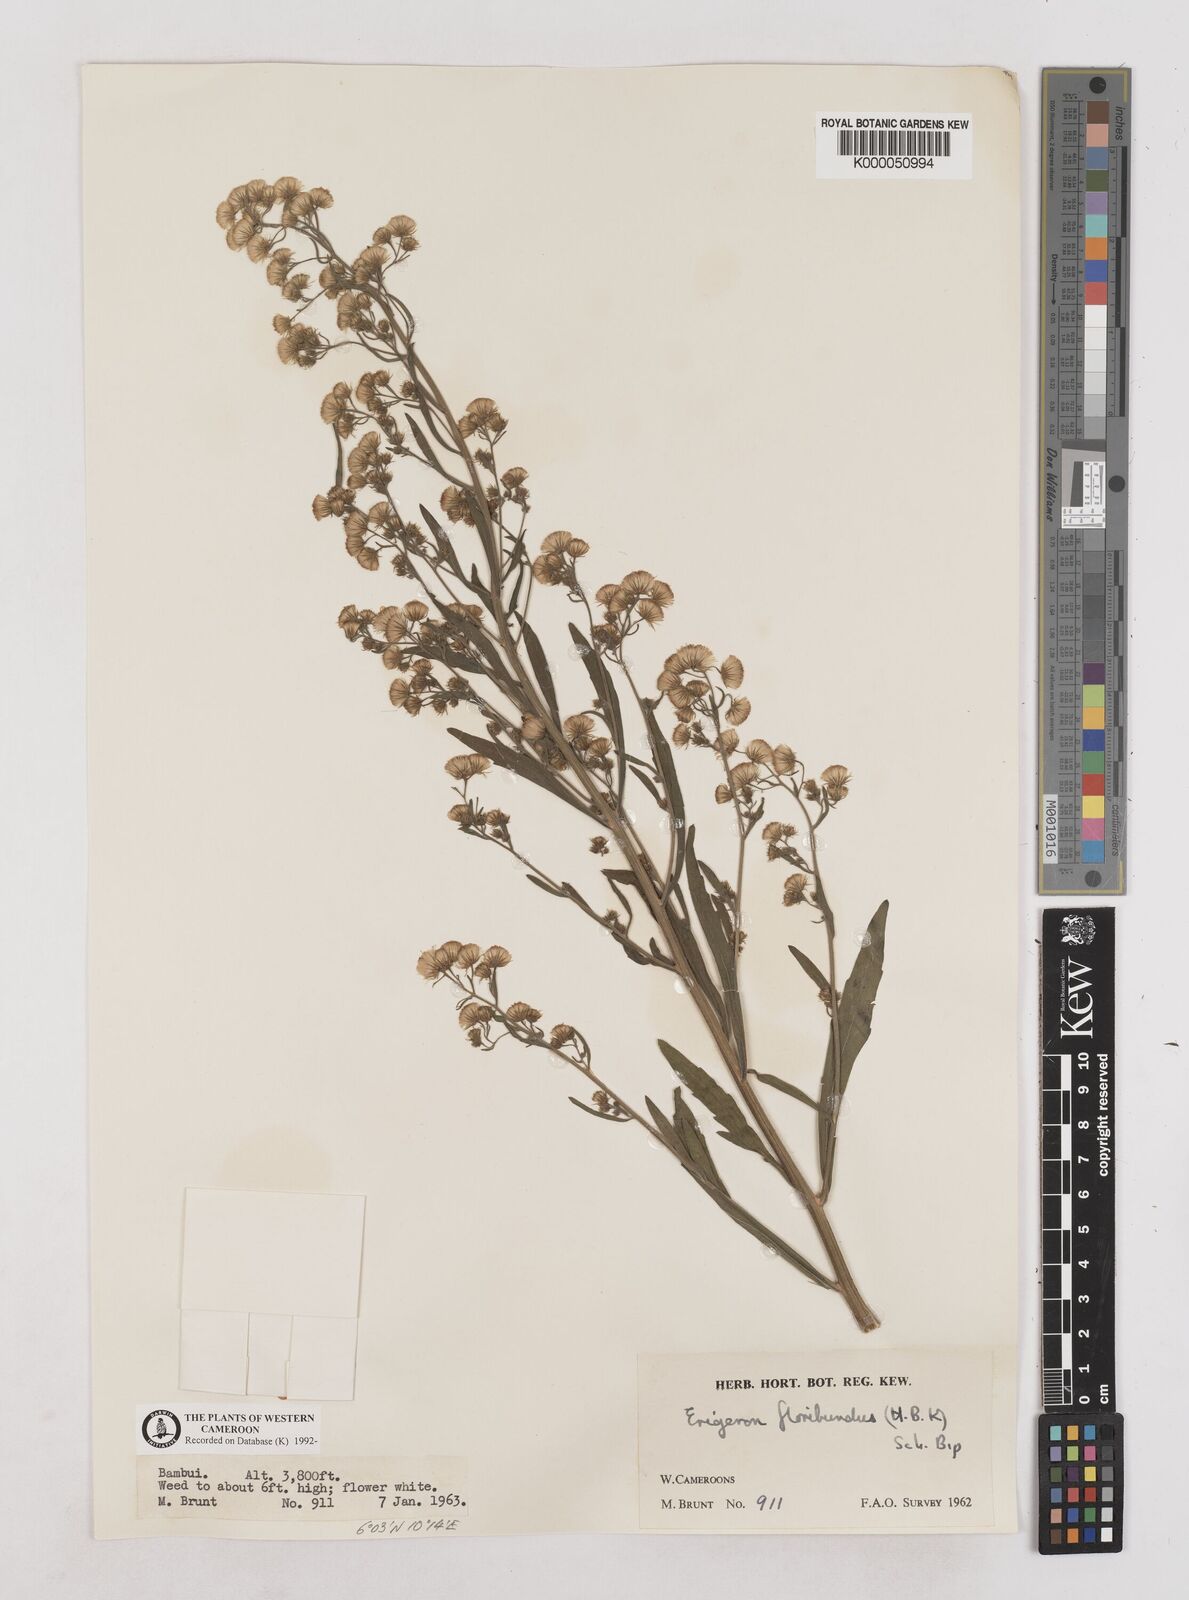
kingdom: Plantae
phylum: Tracheophyta
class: Magnoliopsida
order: Asterales
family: Asteraceae
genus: Erigeron
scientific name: Erigeron sumatrensis
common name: Daisy
